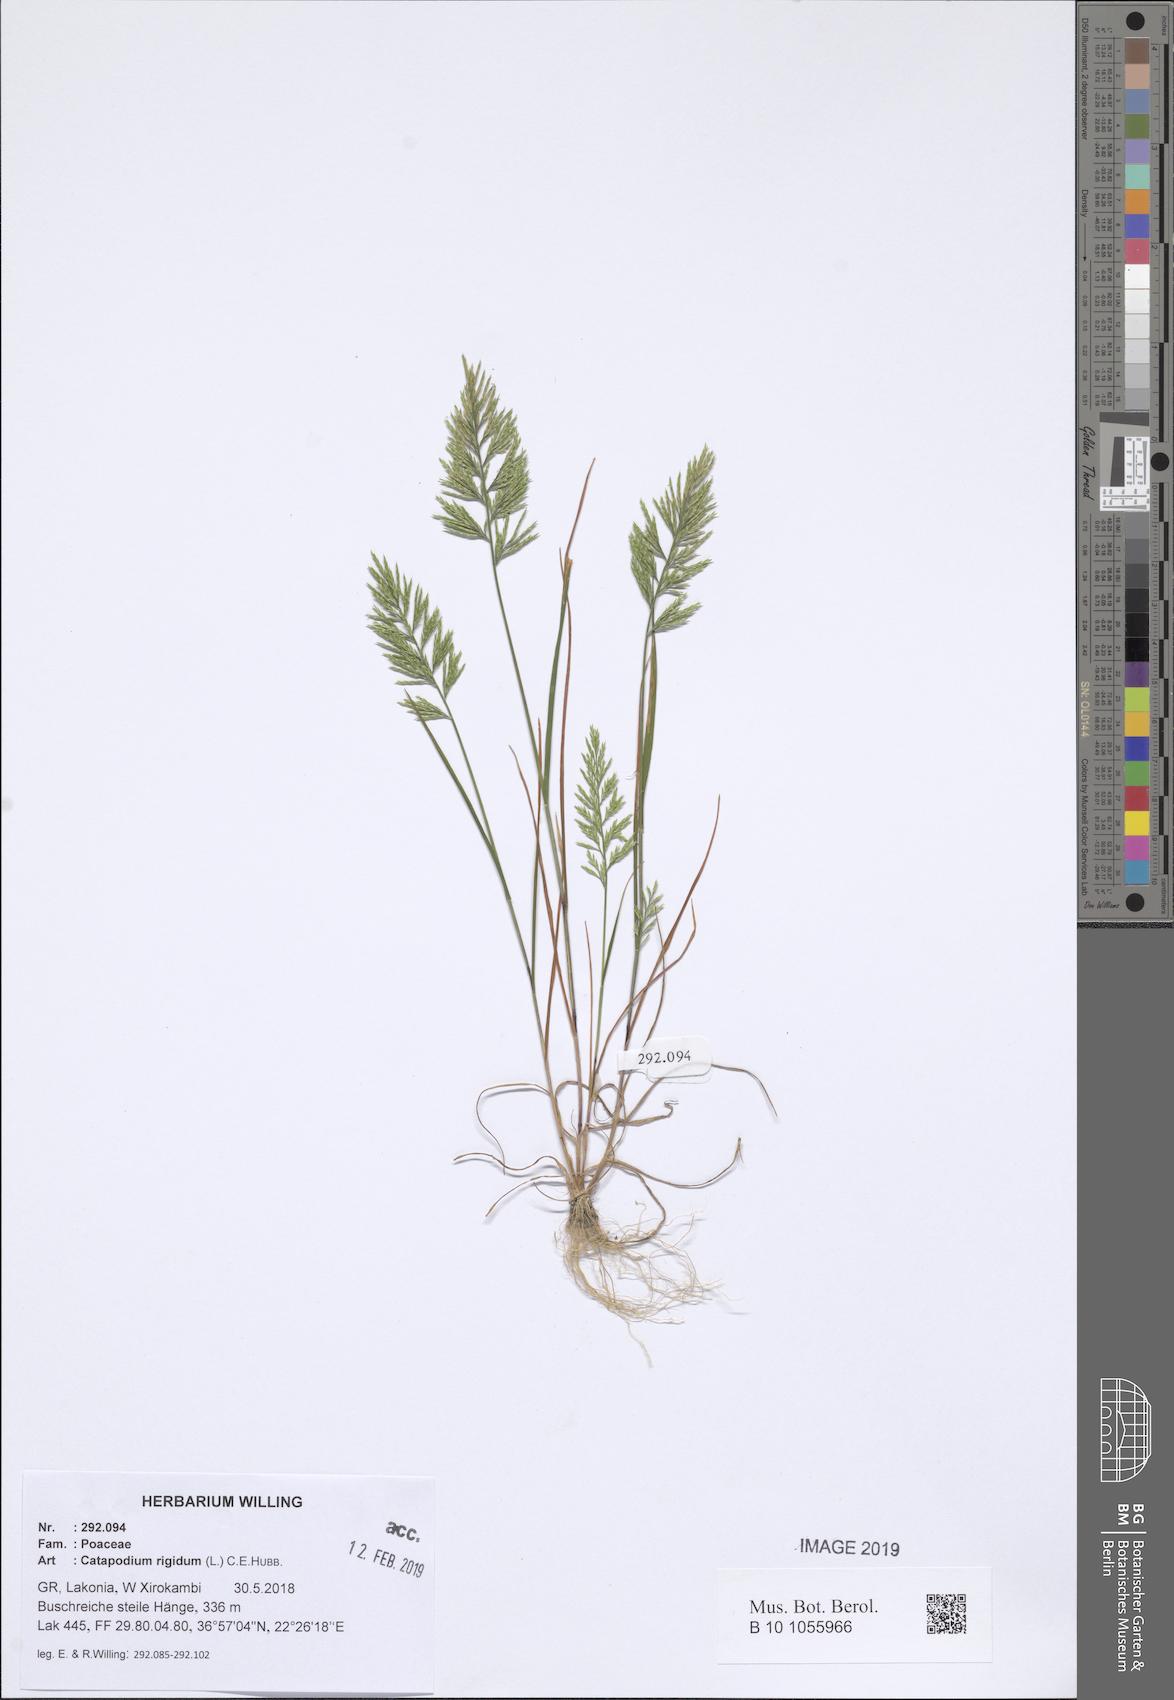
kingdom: Plantae
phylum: Tracheophyta
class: Liliopsida
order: Poales
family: Poaceae
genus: Catapodium
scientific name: Catapodium rigidum
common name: Fern-grass
